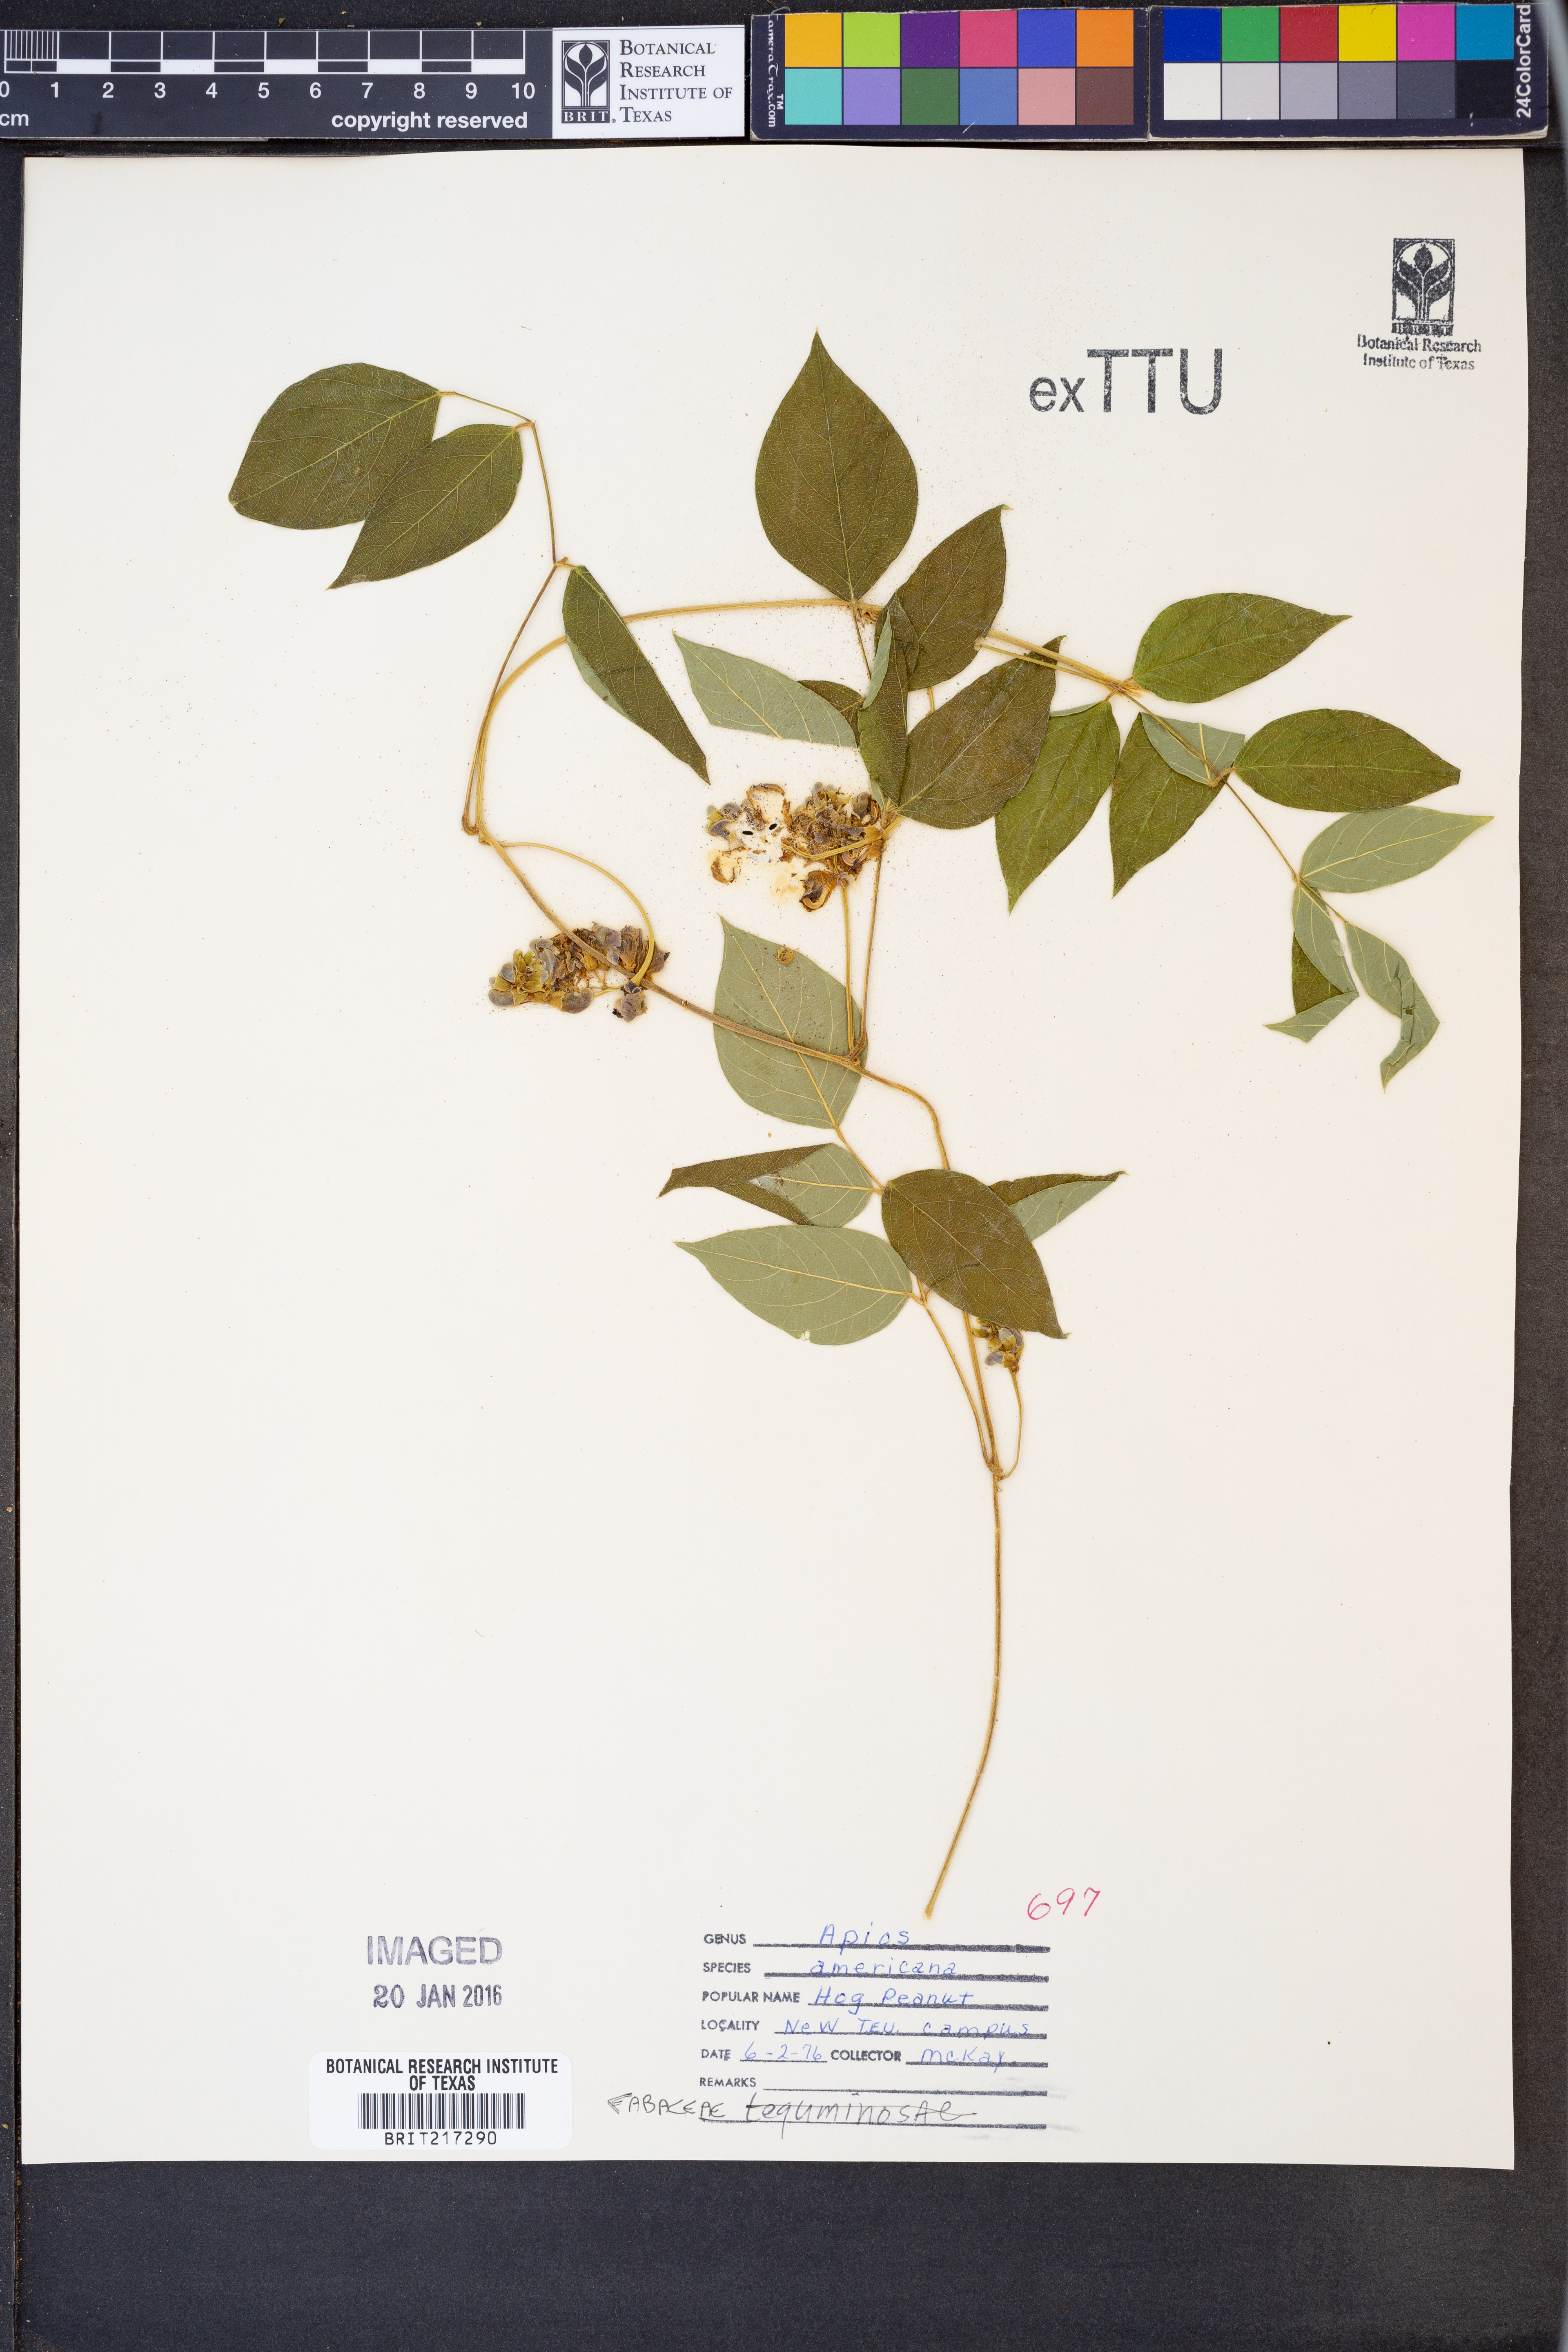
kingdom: Plantae
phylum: Tracheophyta
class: Magnoliopsida
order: Fabales
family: Fabaceae
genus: Apios
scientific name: Apios americana
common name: American potato-bean
